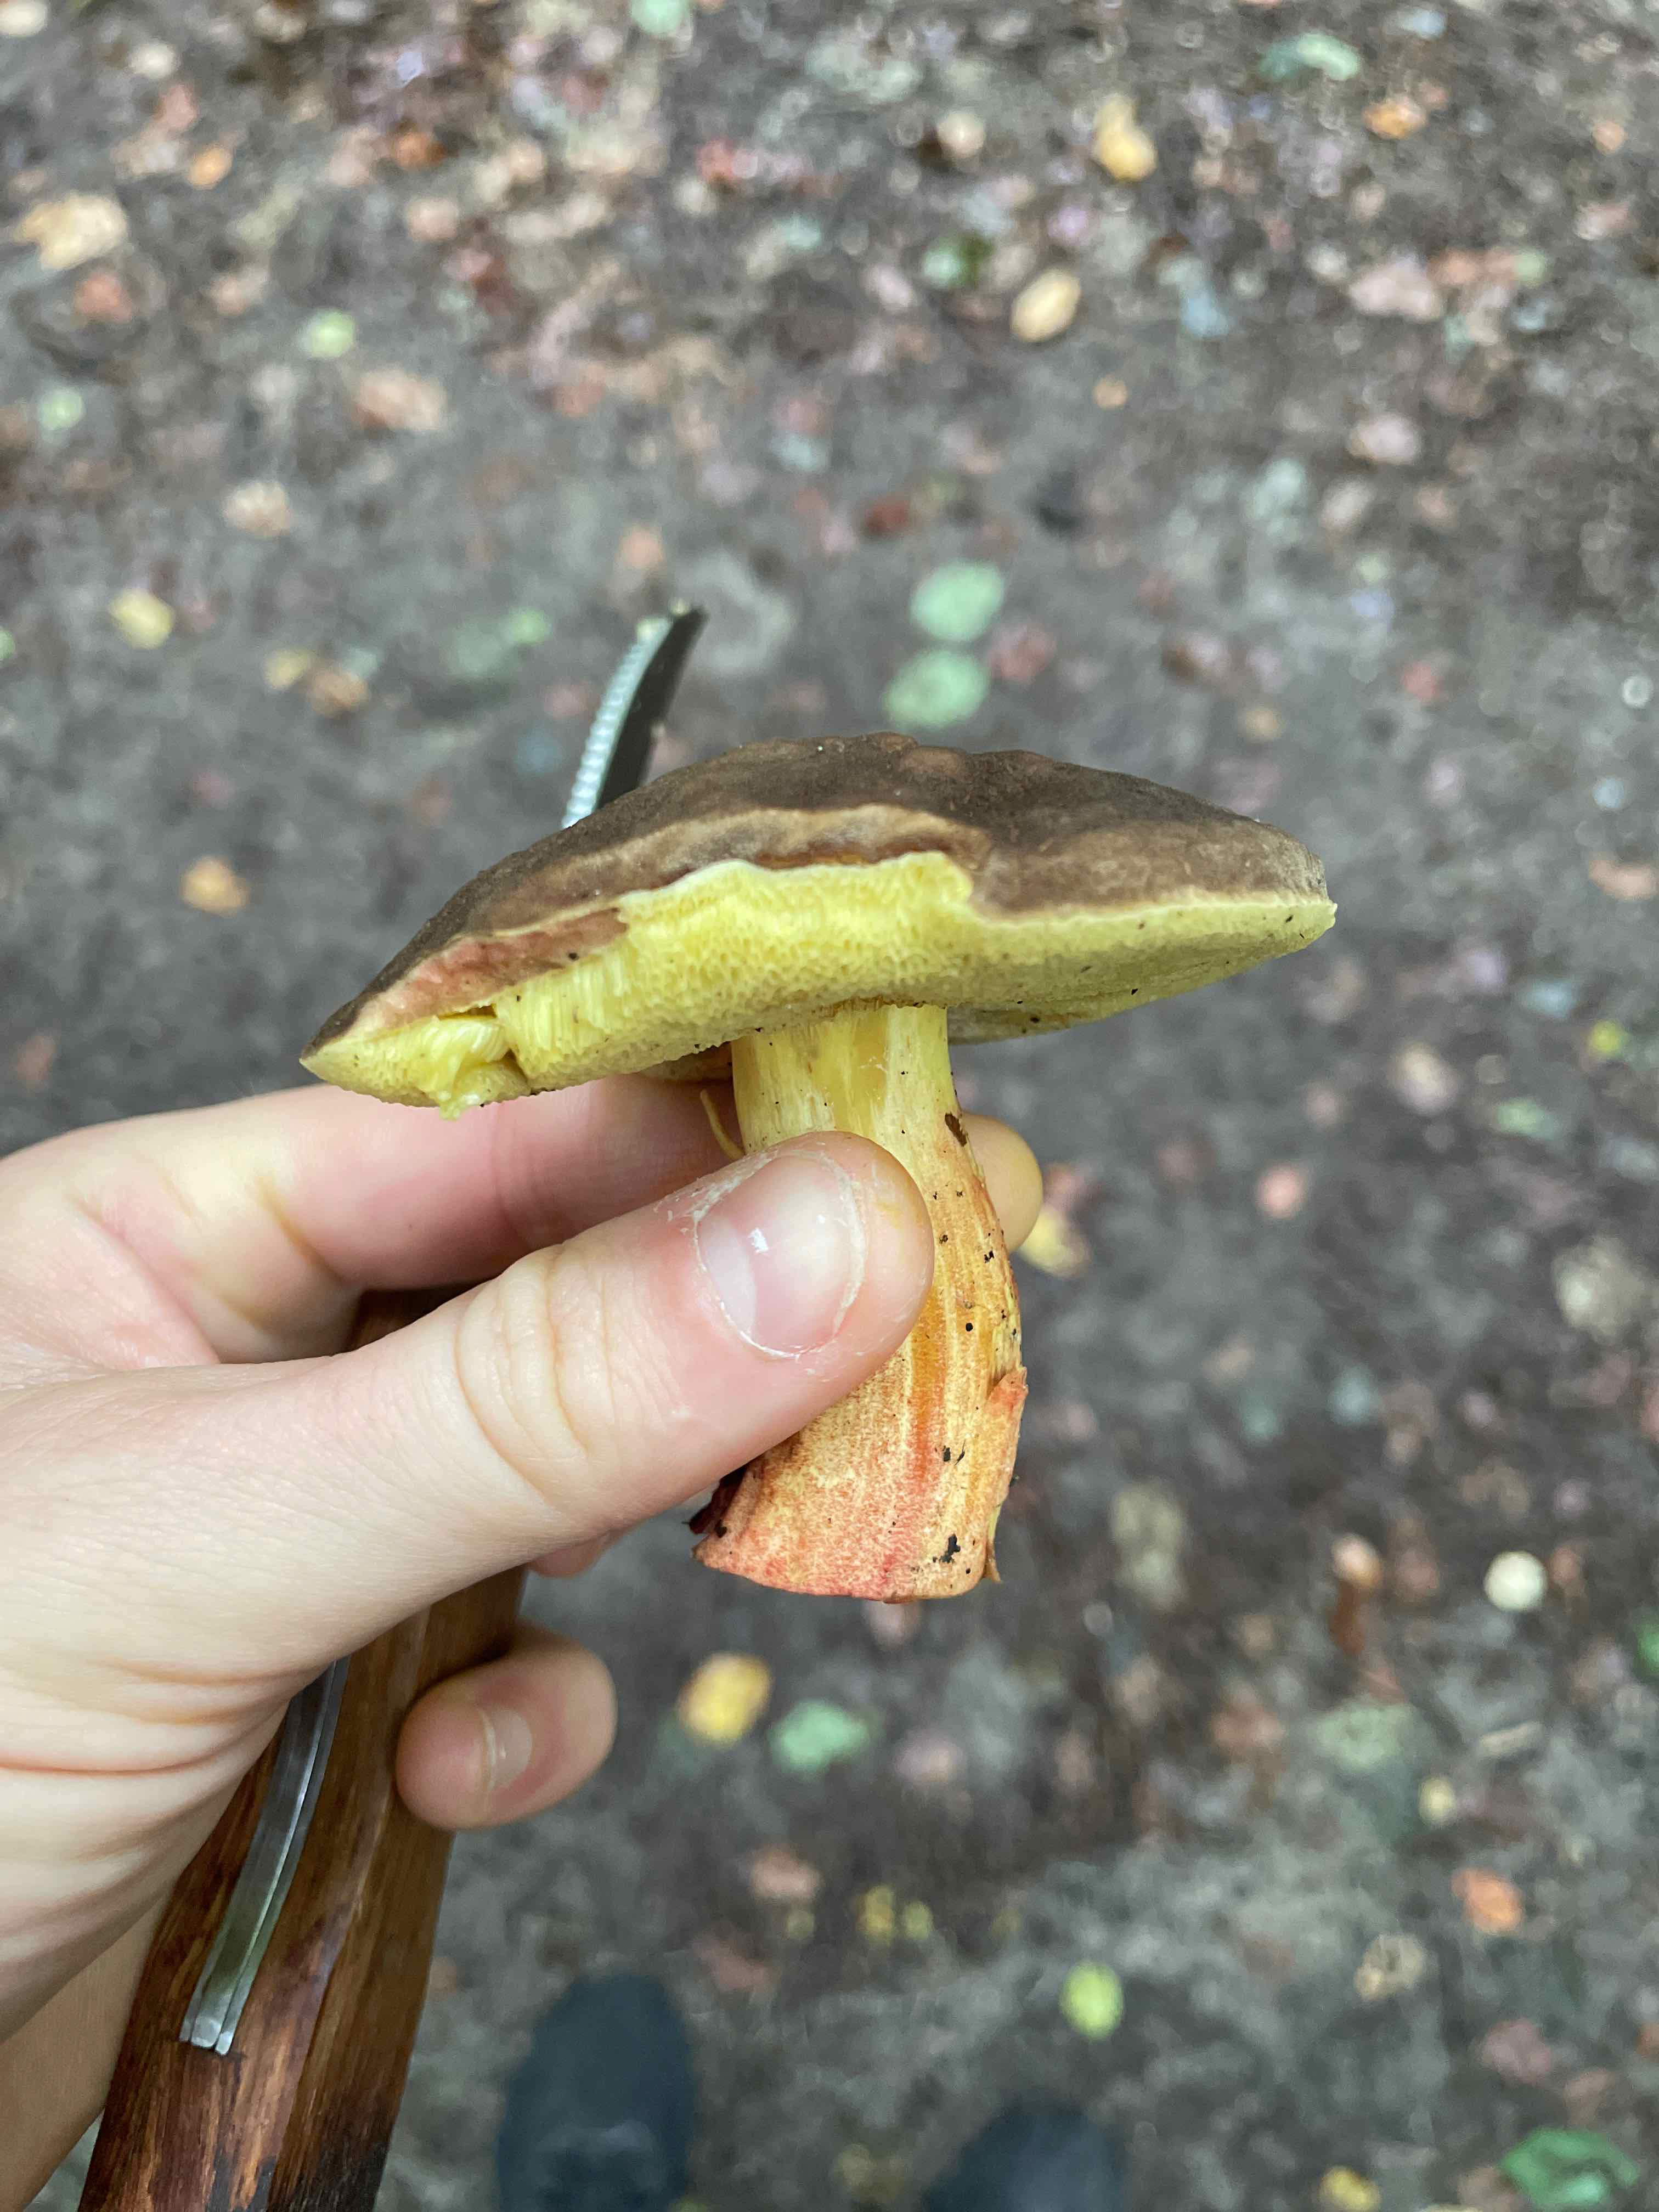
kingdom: Fungi
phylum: Basidiomycota
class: Agaricomycetes
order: Boletales
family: Boletaceae
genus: Xerocomellus
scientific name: Xerocomellus
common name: dværgrørhat
